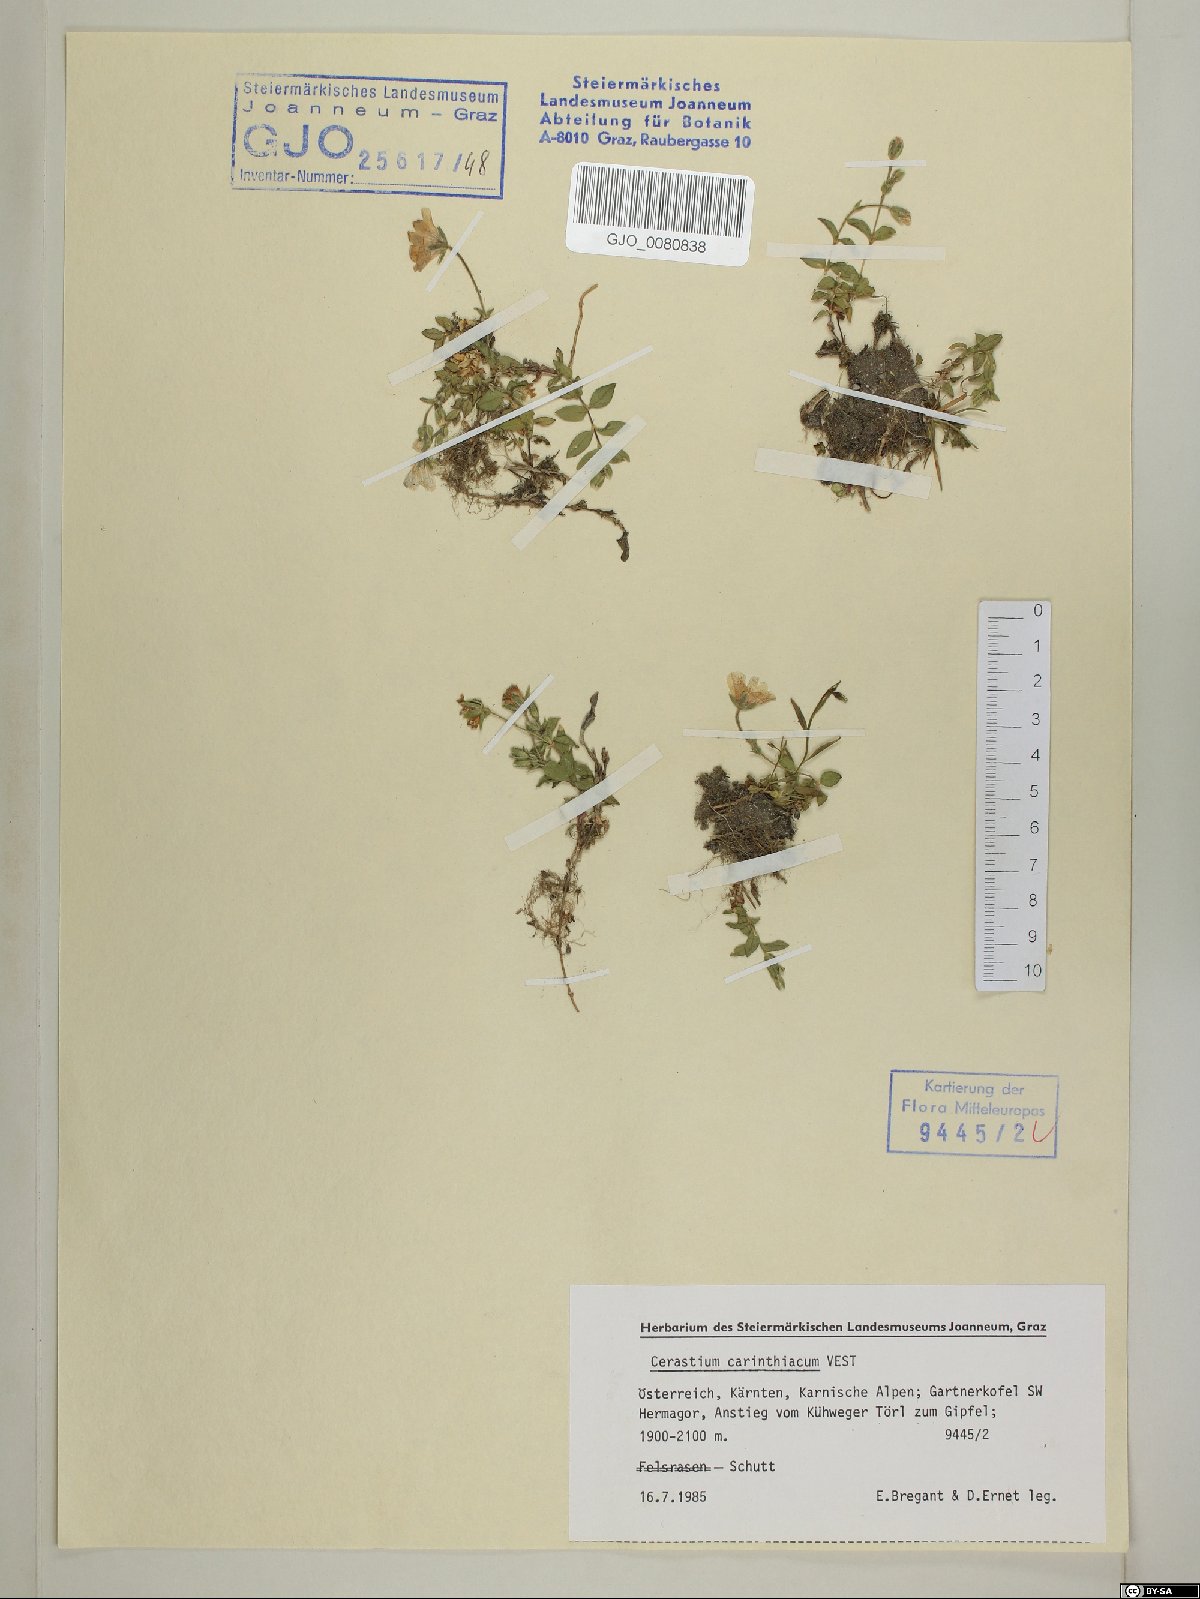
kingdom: Plantae
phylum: Tracheophyta
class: Magnoliopsida
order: Caryophyllales
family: Caryophyllaceae
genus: Cerastium
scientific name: Cerastium carinthiacum
